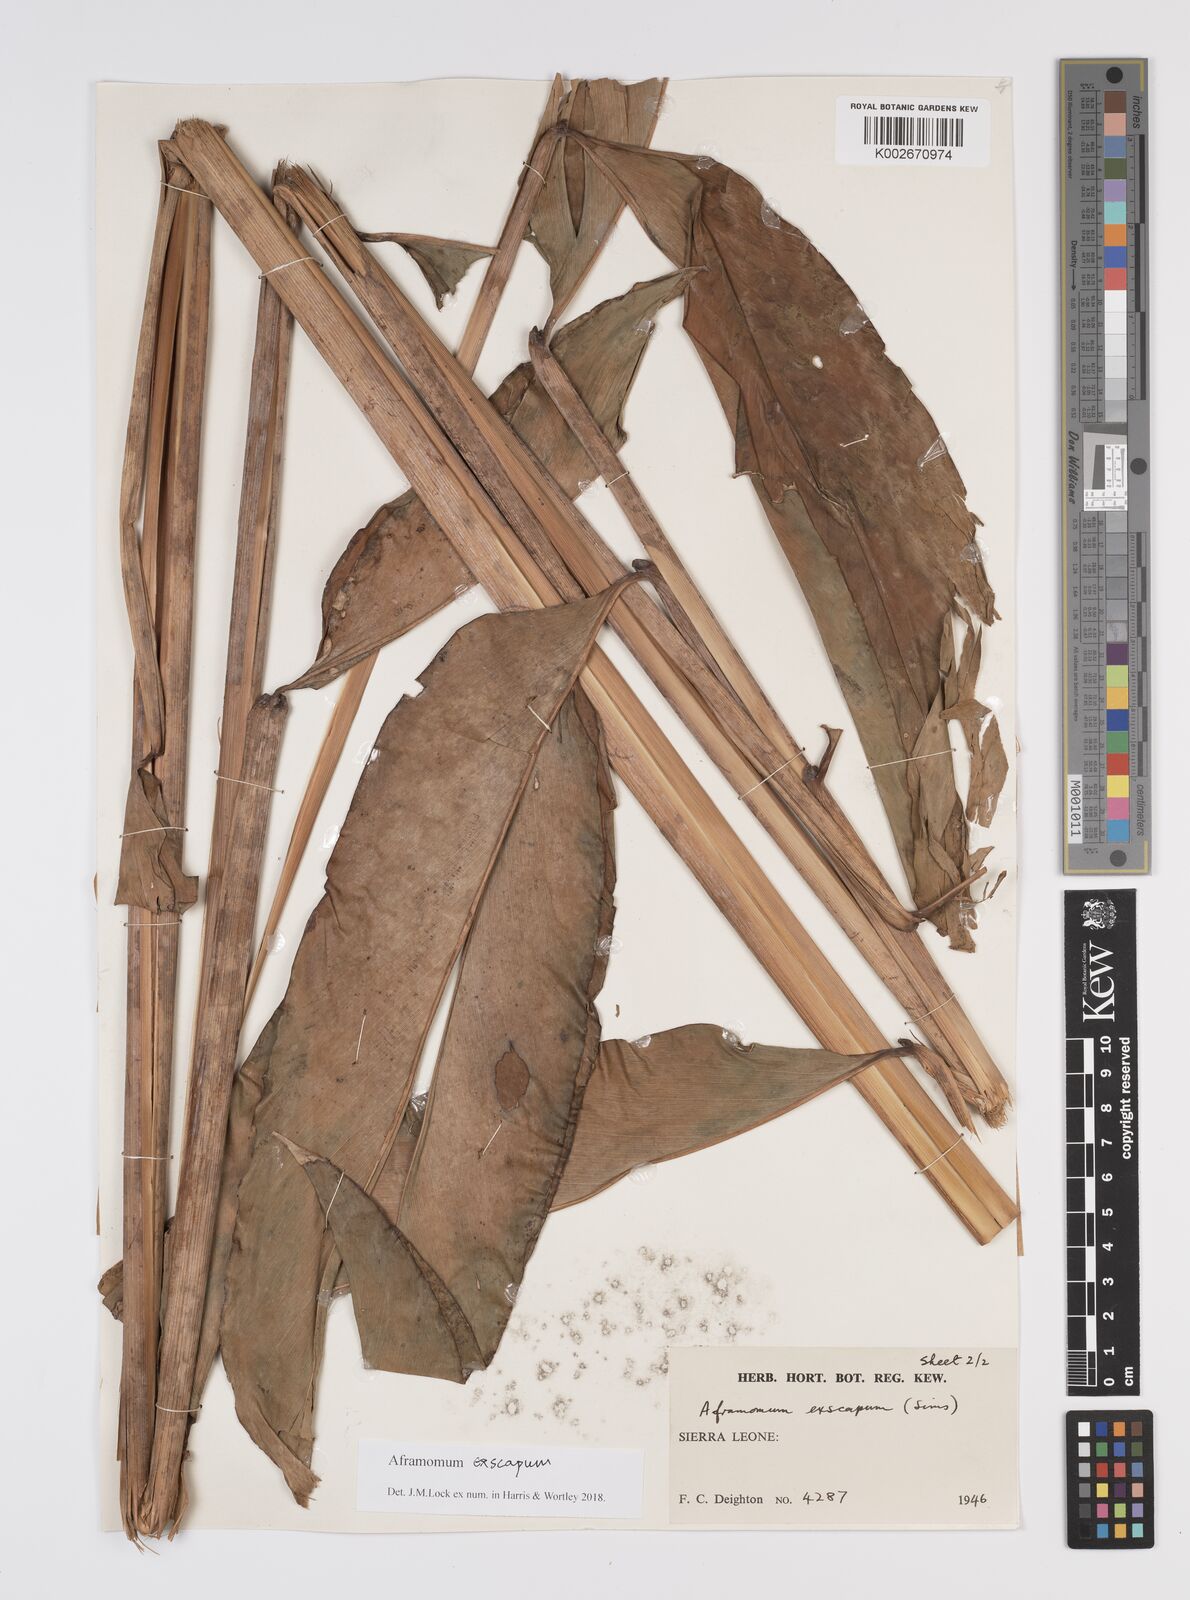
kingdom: Plantae
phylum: Tracheophyta
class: Liliopsida
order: Zingiberales
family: Zingiberaceae
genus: Aframomum
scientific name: Aframomum exscapum
